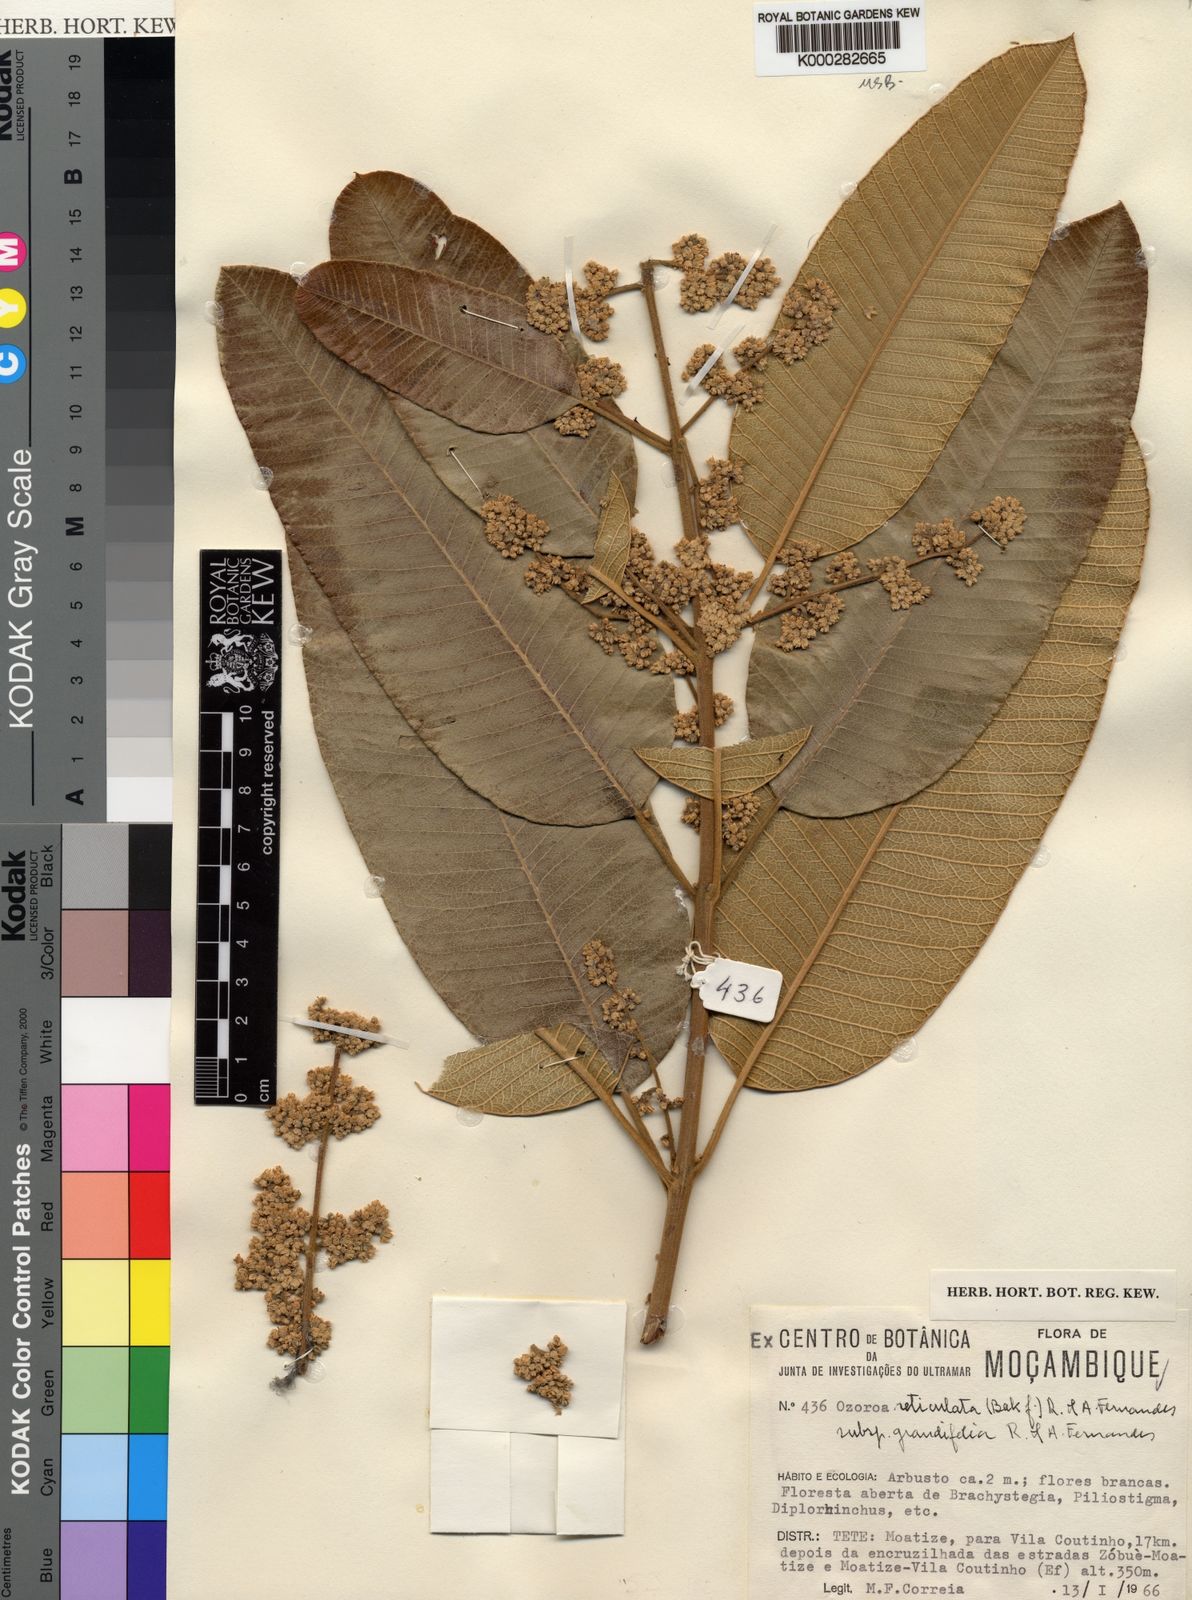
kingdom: Plantae
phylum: Tracheophyta
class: Magnoliopsida
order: Sapindales
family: Anacardiaceae
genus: Ozoroa
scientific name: Ozoroa insignis
